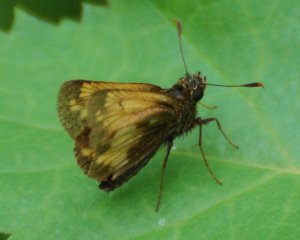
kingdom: Animalia
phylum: Arthropoda
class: Insecta
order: Lepidoptera
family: Hesperiidae
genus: Lon
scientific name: Lon hobomok
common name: Hobomok Skipper
